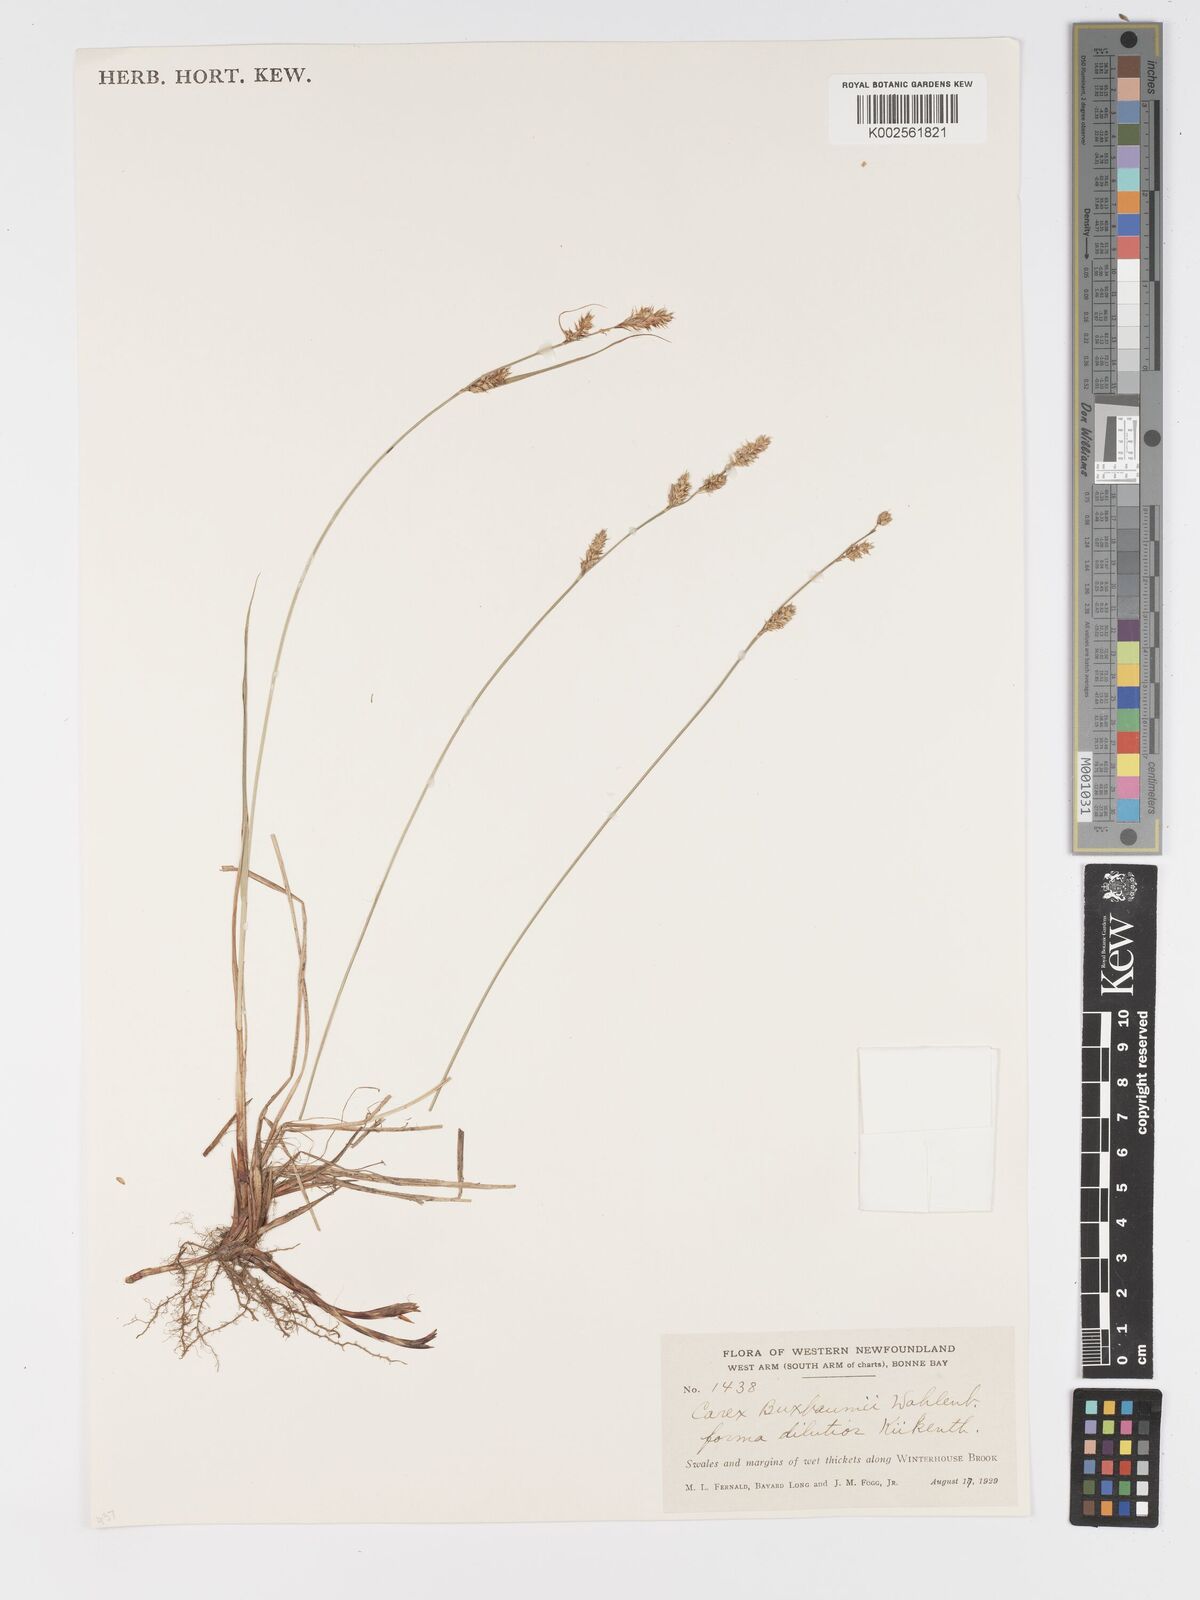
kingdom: Plantae
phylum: Tracheophyta
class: Liliopsida
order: Poales
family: Cyperaceae
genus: Carex
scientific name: Carex buxbaumii
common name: Club sedge
